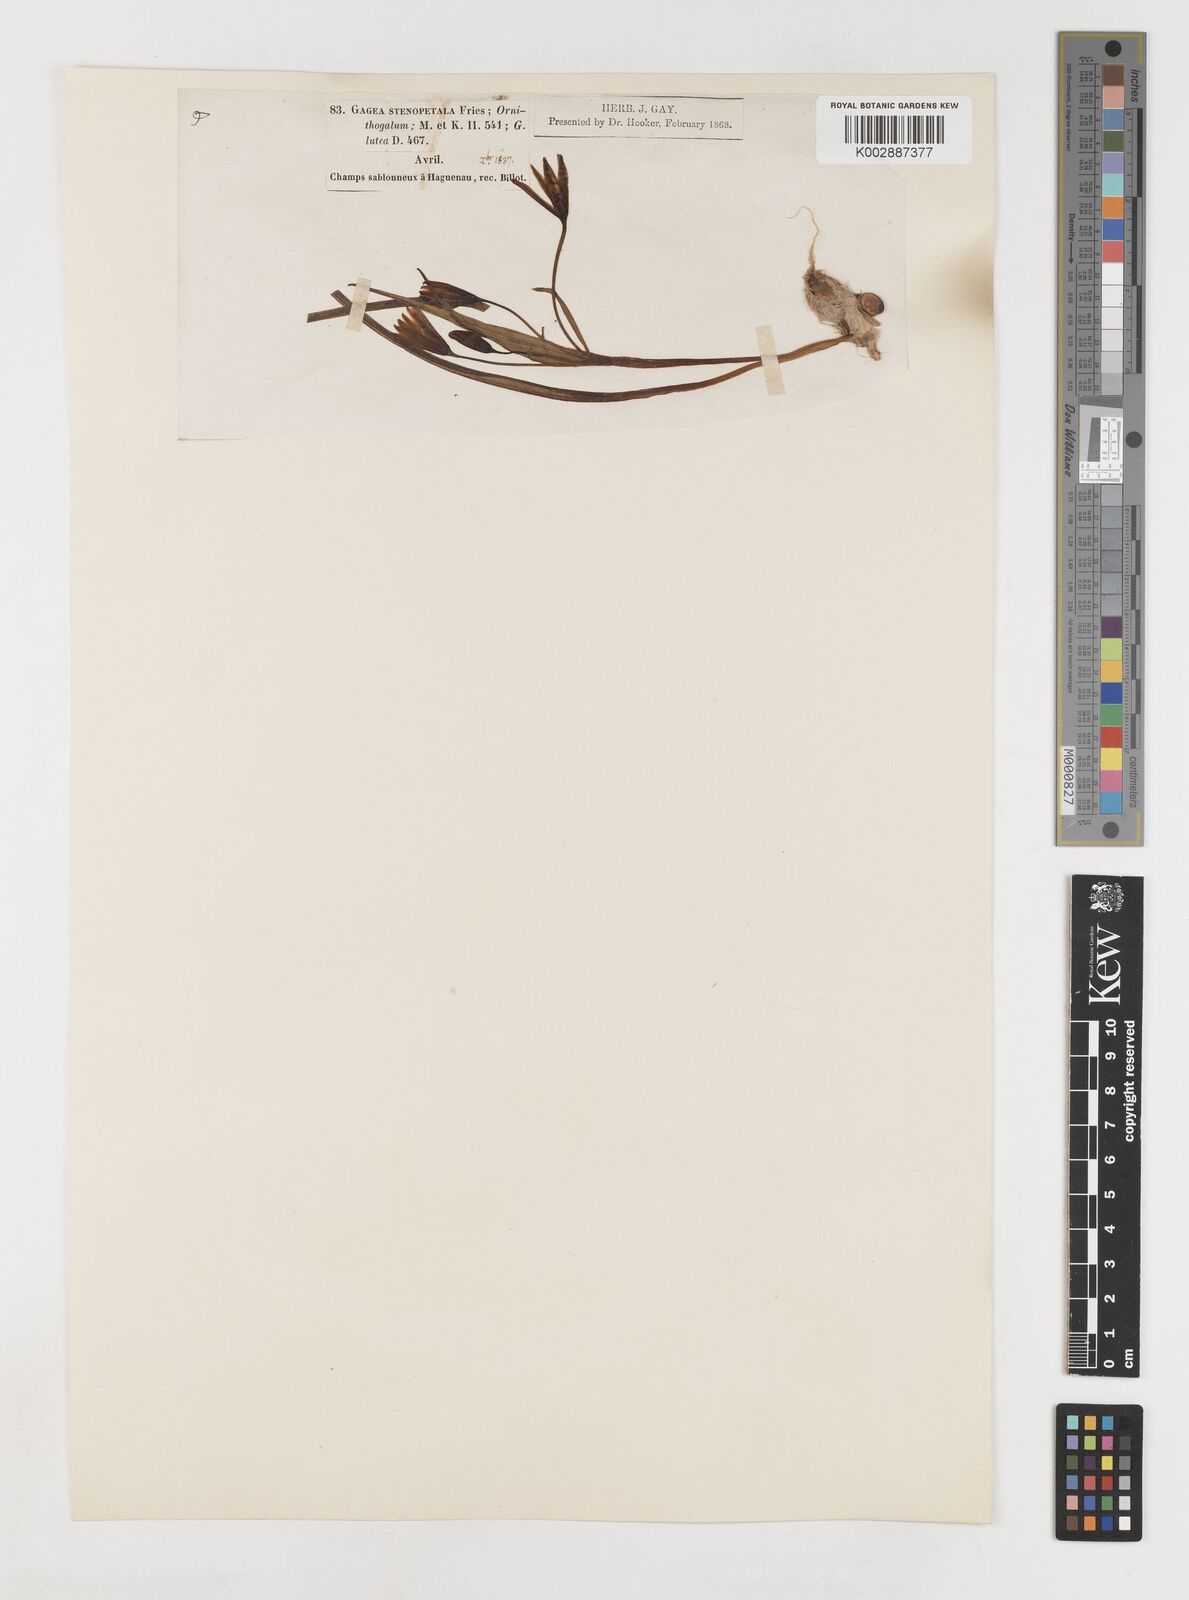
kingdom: Plantae
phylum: Tracheophyta
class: Liliopsida
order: Liliales
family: Liliaceae
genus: Gagea
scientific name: Gagea pratensis
